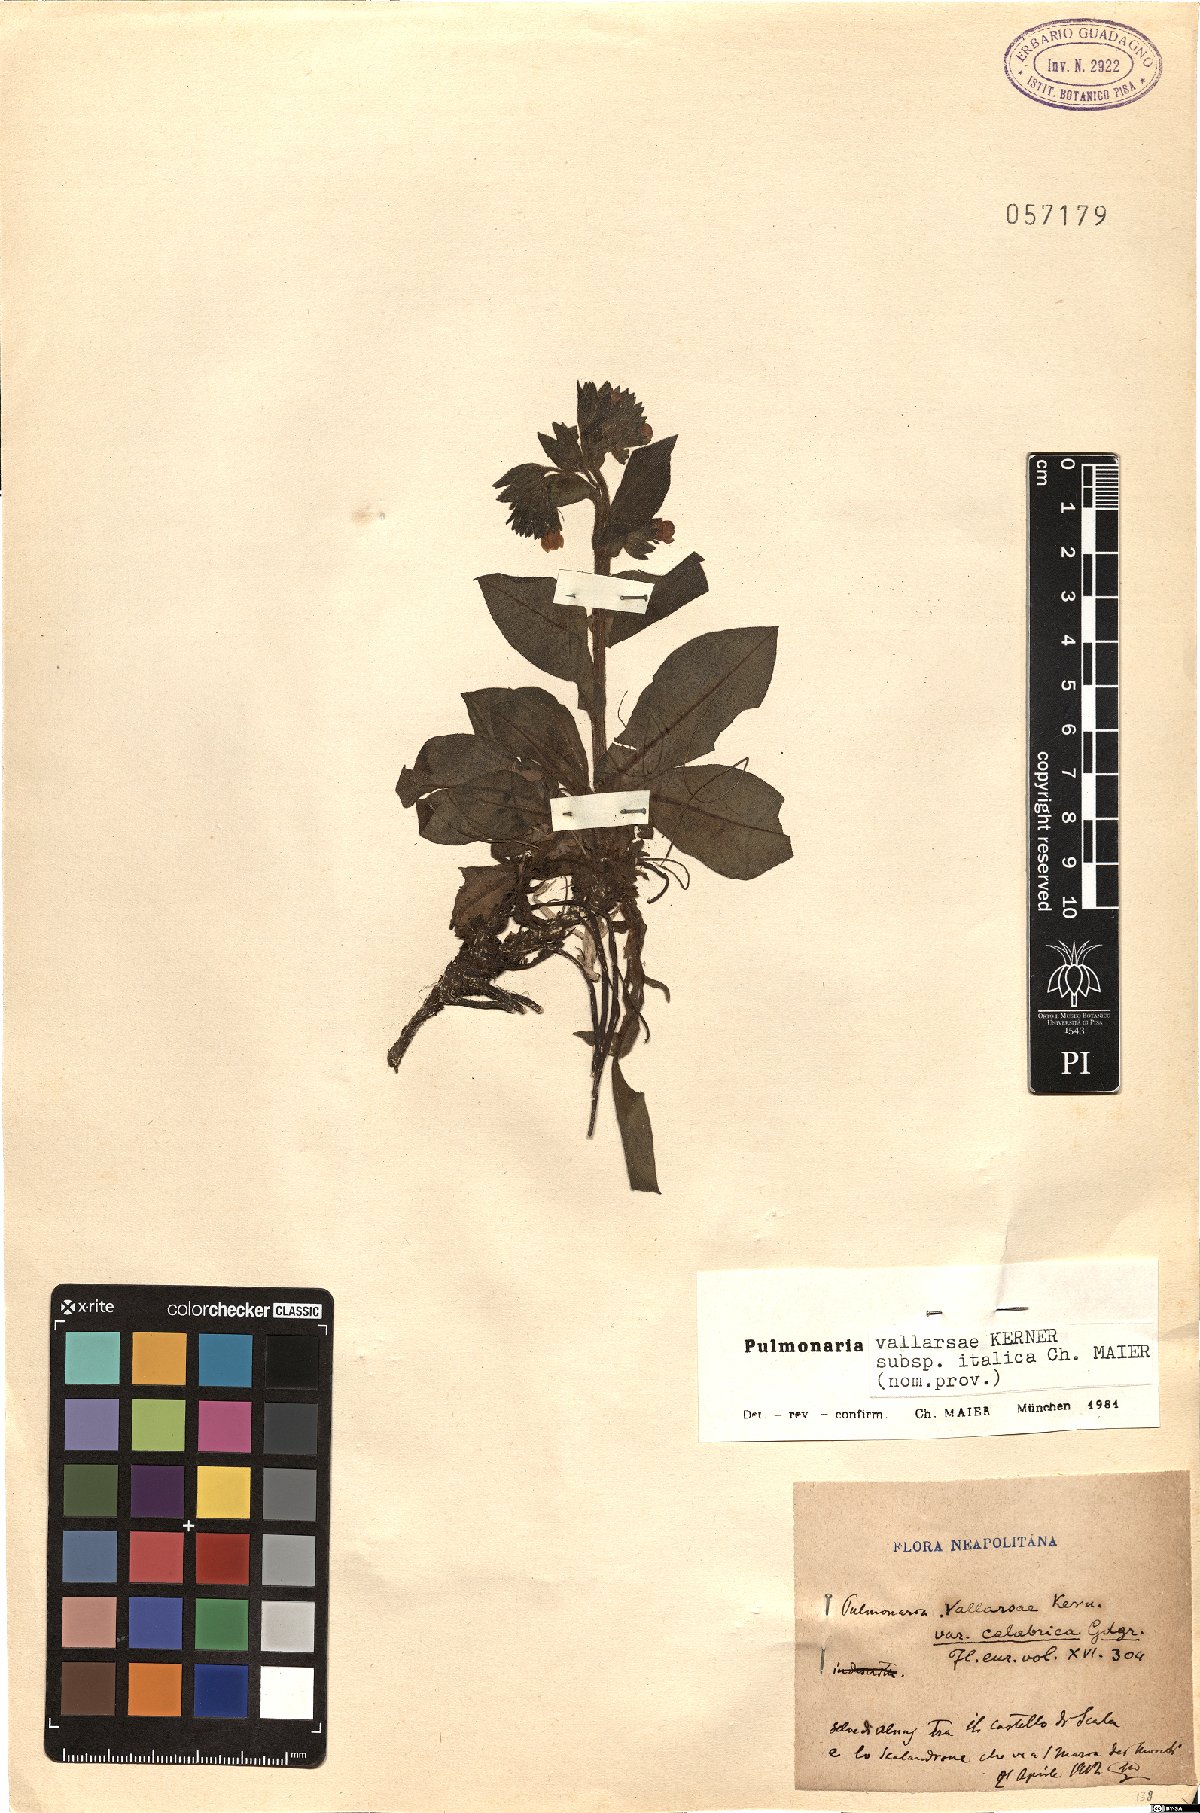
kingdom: Plantae
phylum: Tracheophyta
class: Magnoliopsida
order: Boraginales
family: Boraginaceae
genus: Pulmonaria
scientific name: Pulmonaria hirta
